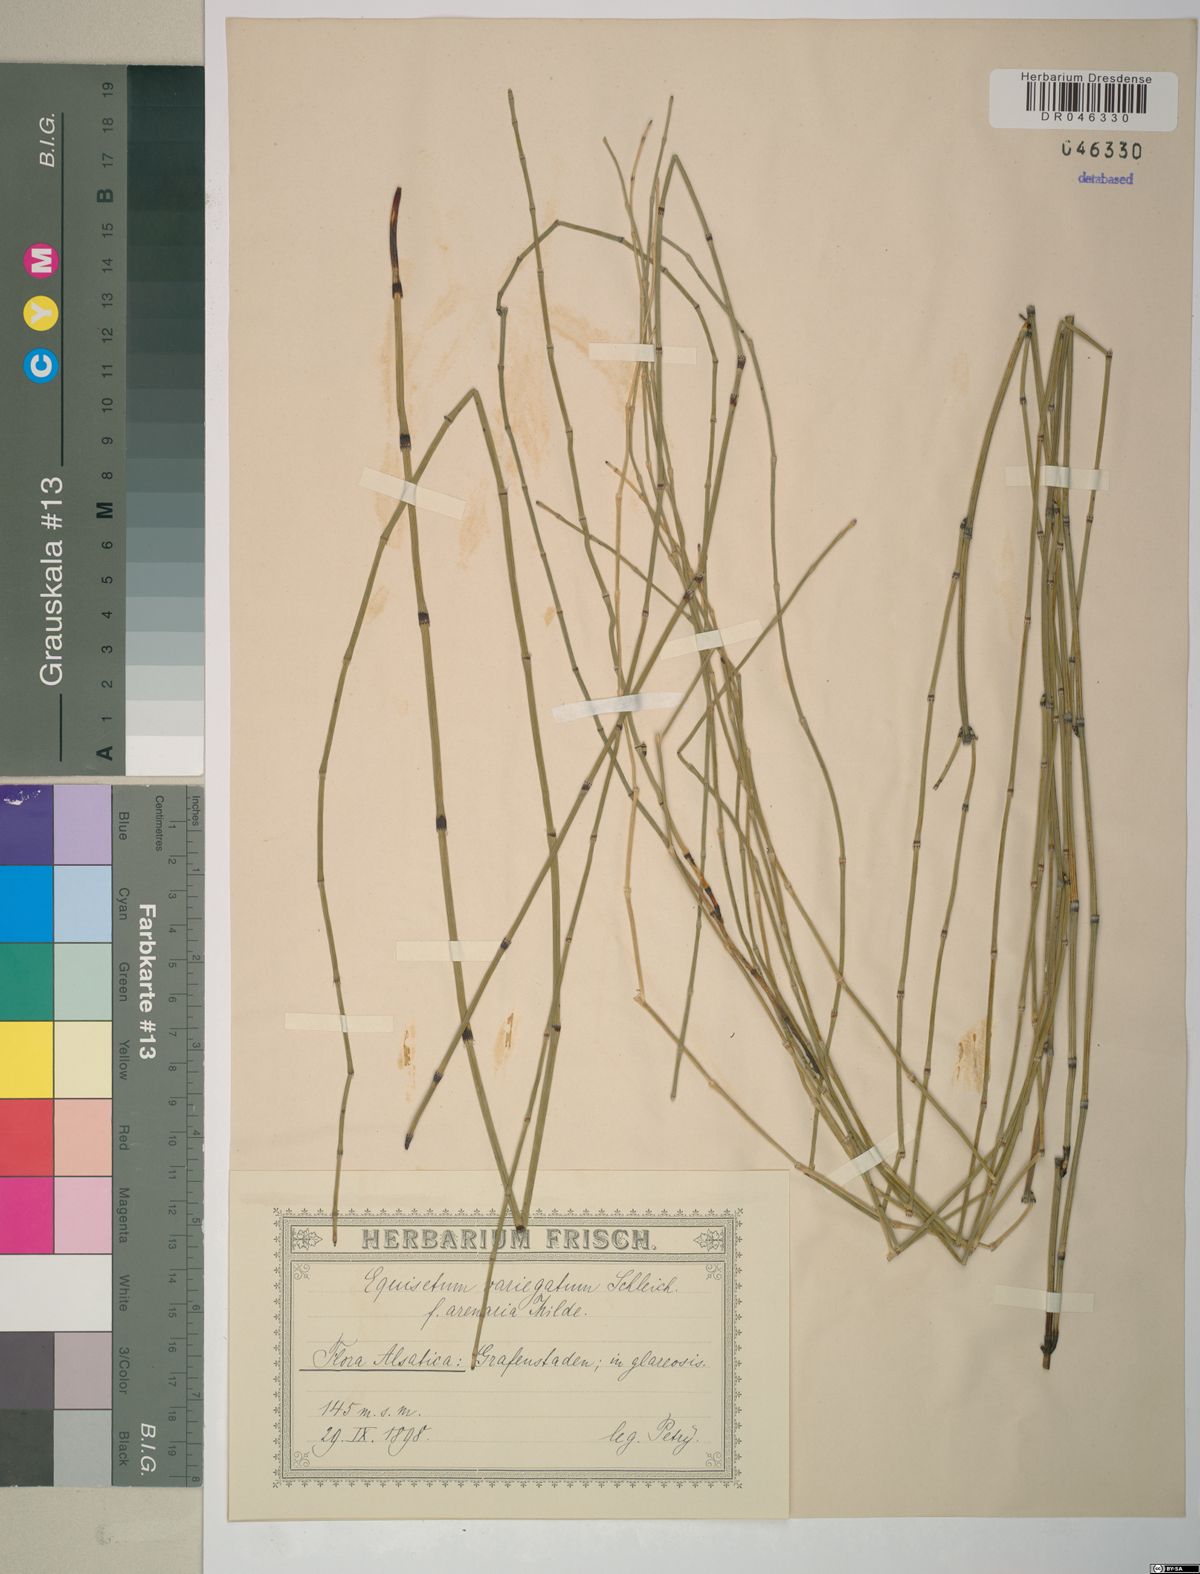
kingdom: Plantae
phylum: Tracheophyta
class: Polypodiopsida
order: Equisetales
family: Equisetaceae
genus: Equisetum
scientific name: Equisetum variegatum
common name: Variegated horsetail
